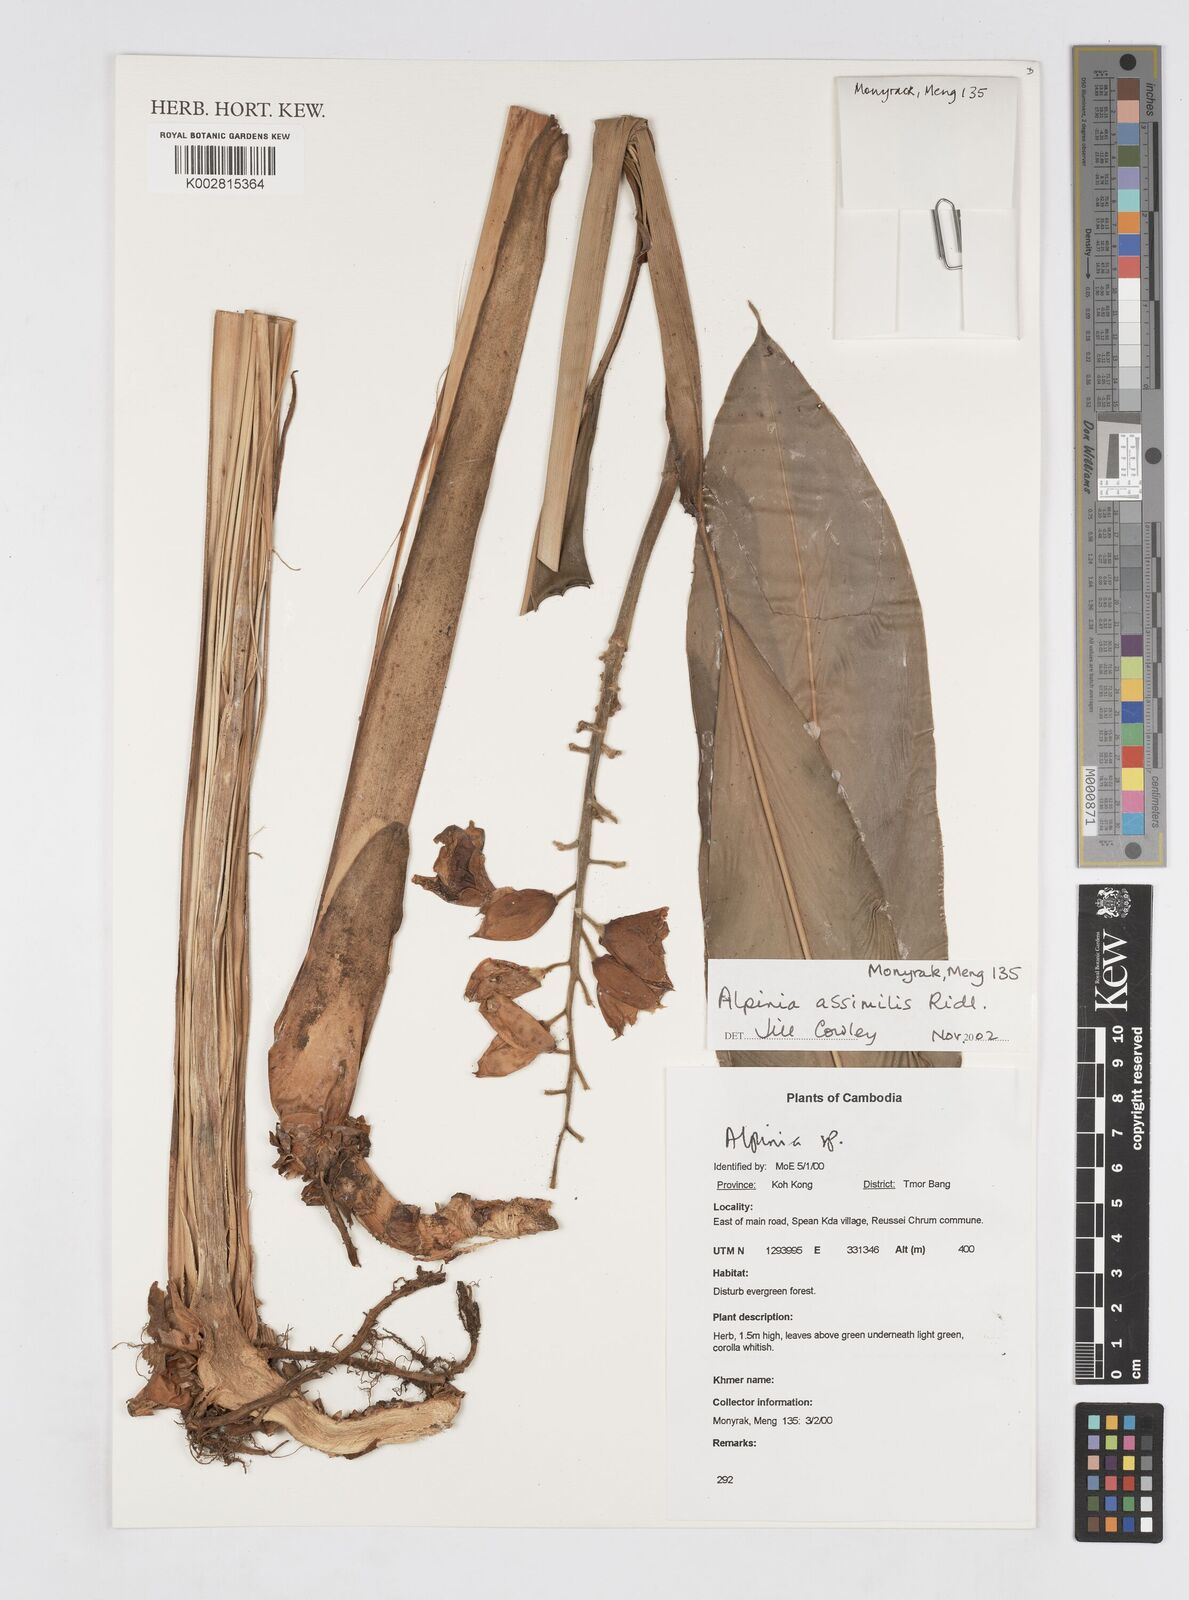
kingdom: Plantae
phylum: Tracheophyta
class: Liliopsida
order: Zingiberales
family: Zingiberaceae
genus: Alpinia
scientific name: Alpinia assimilis
